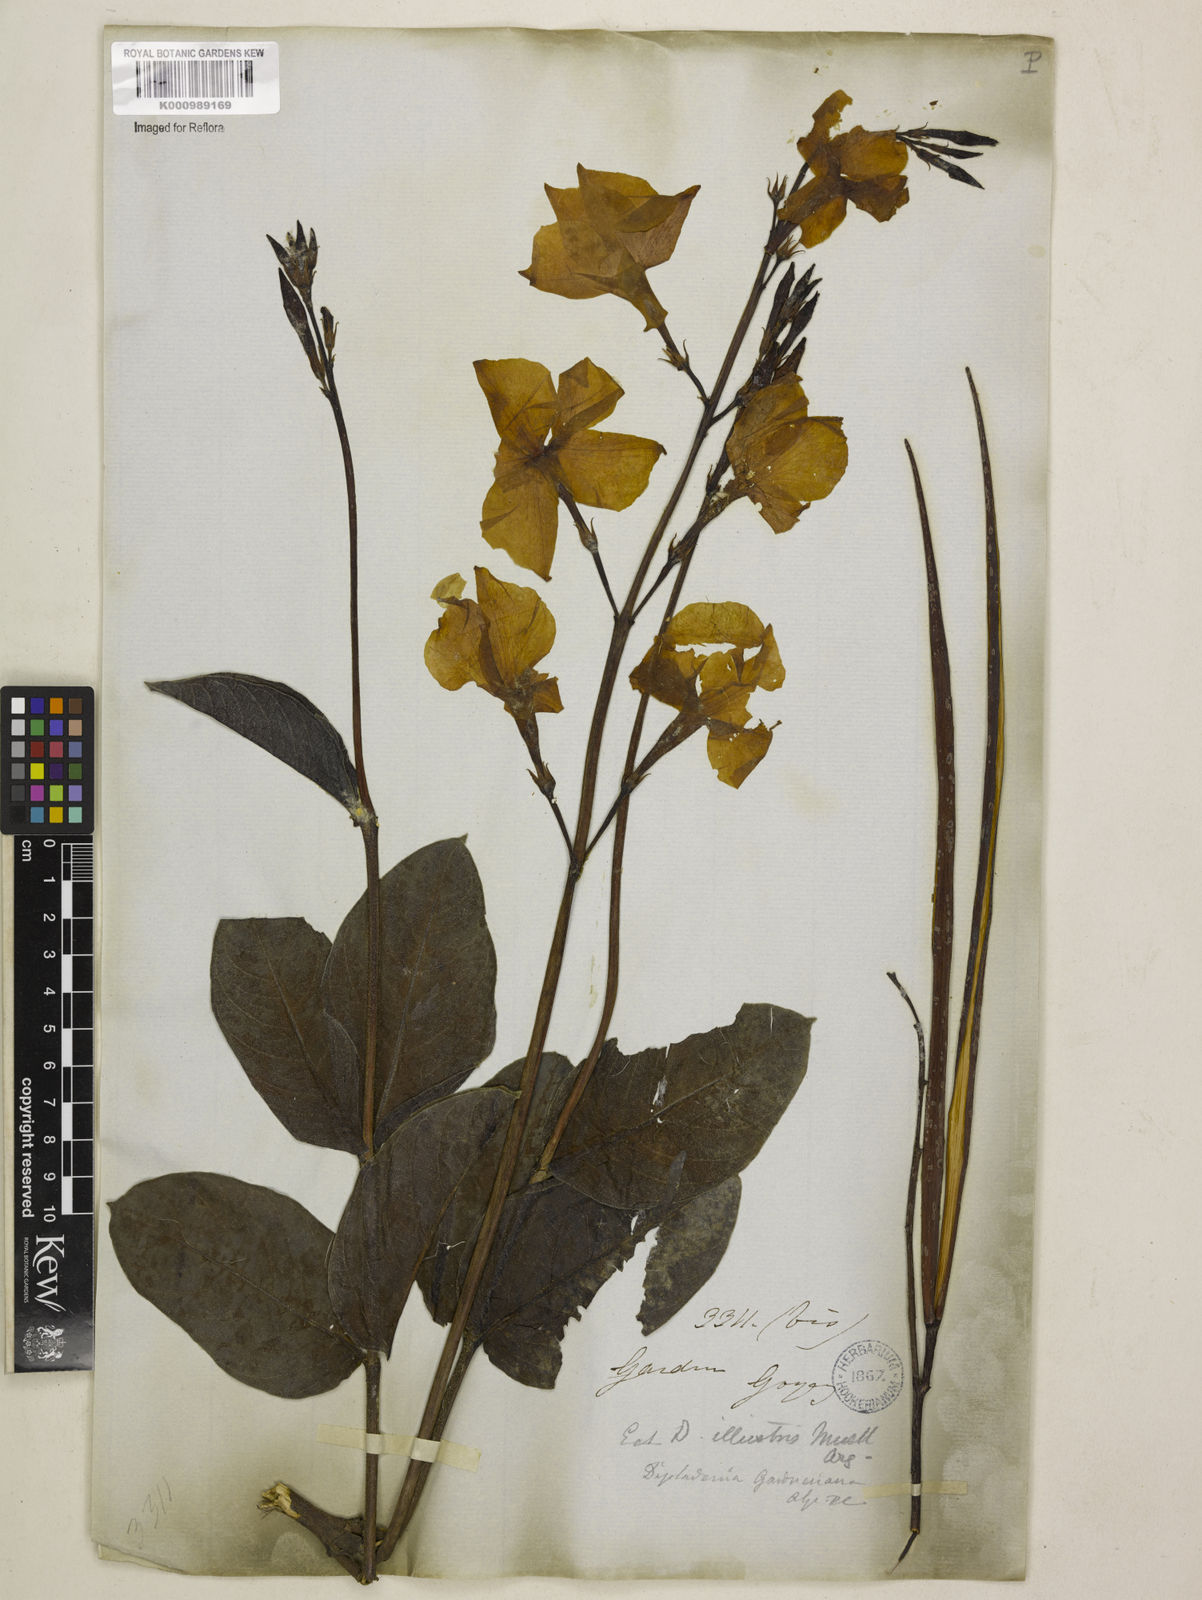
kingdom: Plantae
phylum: Tracheophyta
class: Magnoliopsida
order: Gentianales
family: Apocynaceae
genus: Mandevilla
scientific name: Mandevilla illustris
